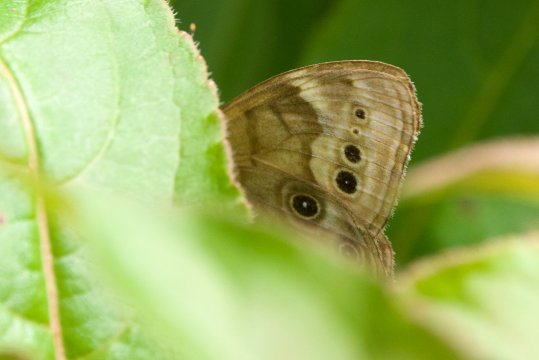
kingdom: Animalia
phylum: Arthropoda
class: Insecta
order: Lepidoptera
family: Nymphalidae
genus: Lethe
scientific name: Lethe anthedon
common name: Northern Pearly-Eye
